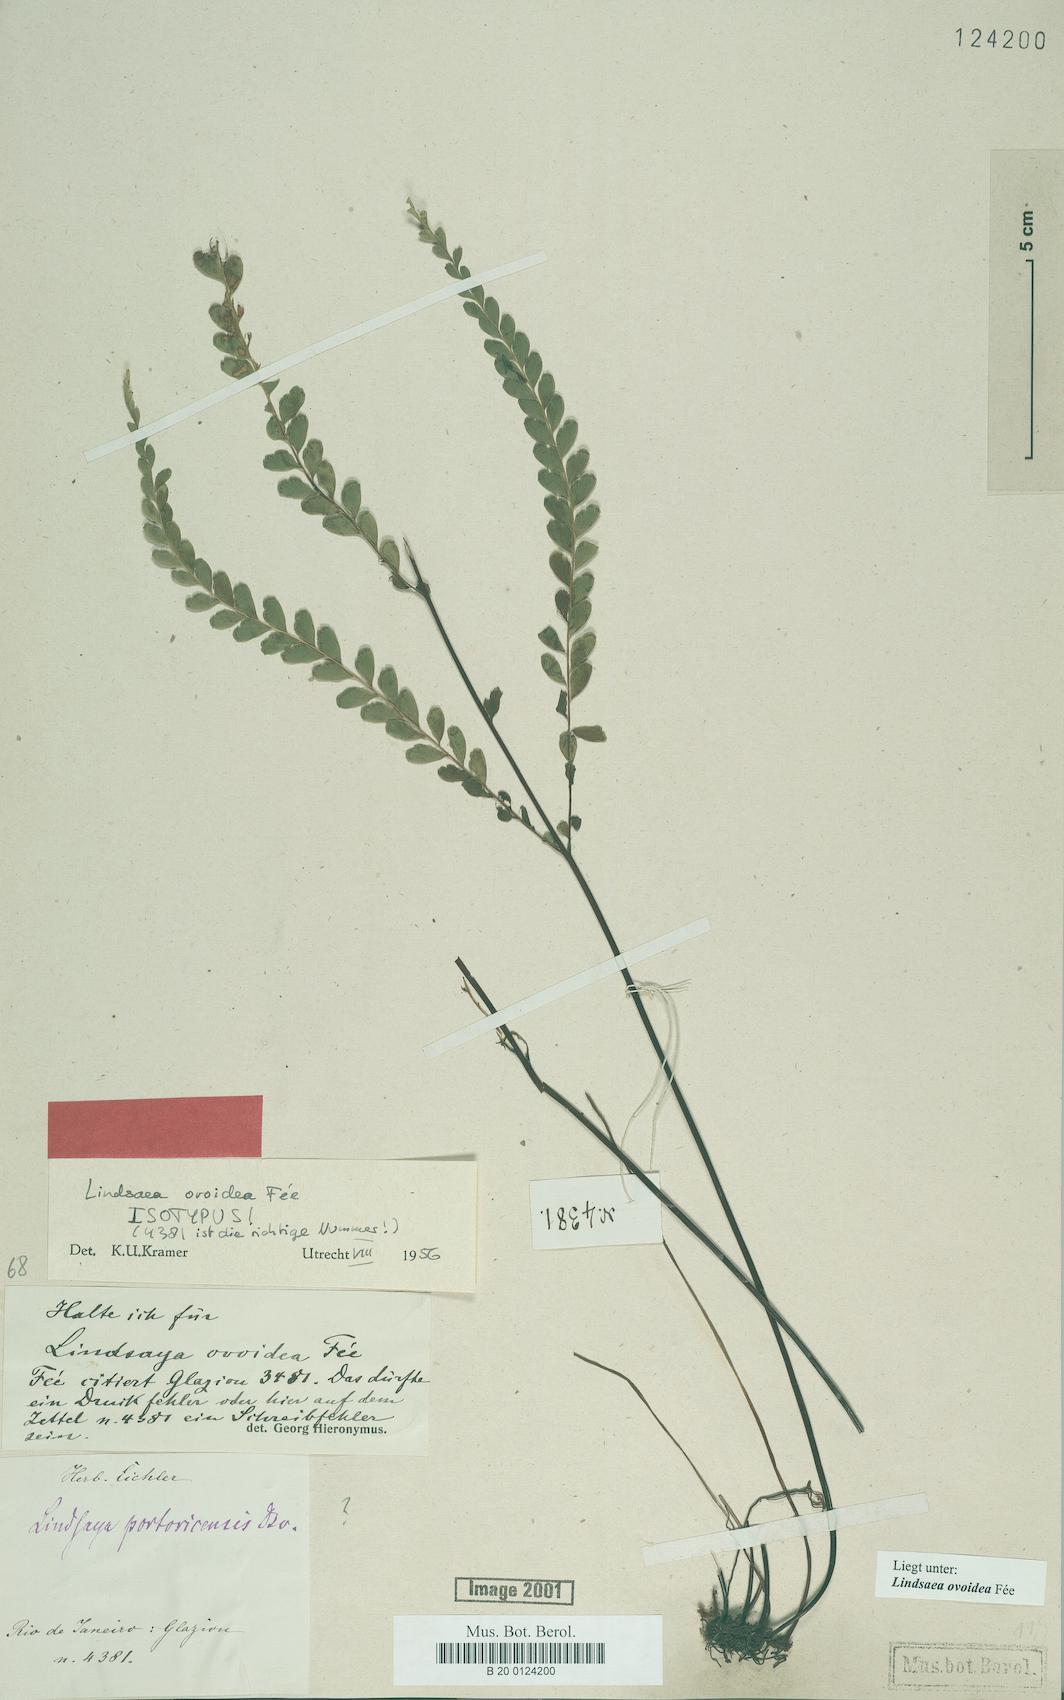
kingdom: Plantae
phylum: Tracheophyta
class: Polypodiopsida
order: Polypodiales
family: Lindsaeaceae
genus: Lindsaea
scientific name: Lindsaea ovoidea
